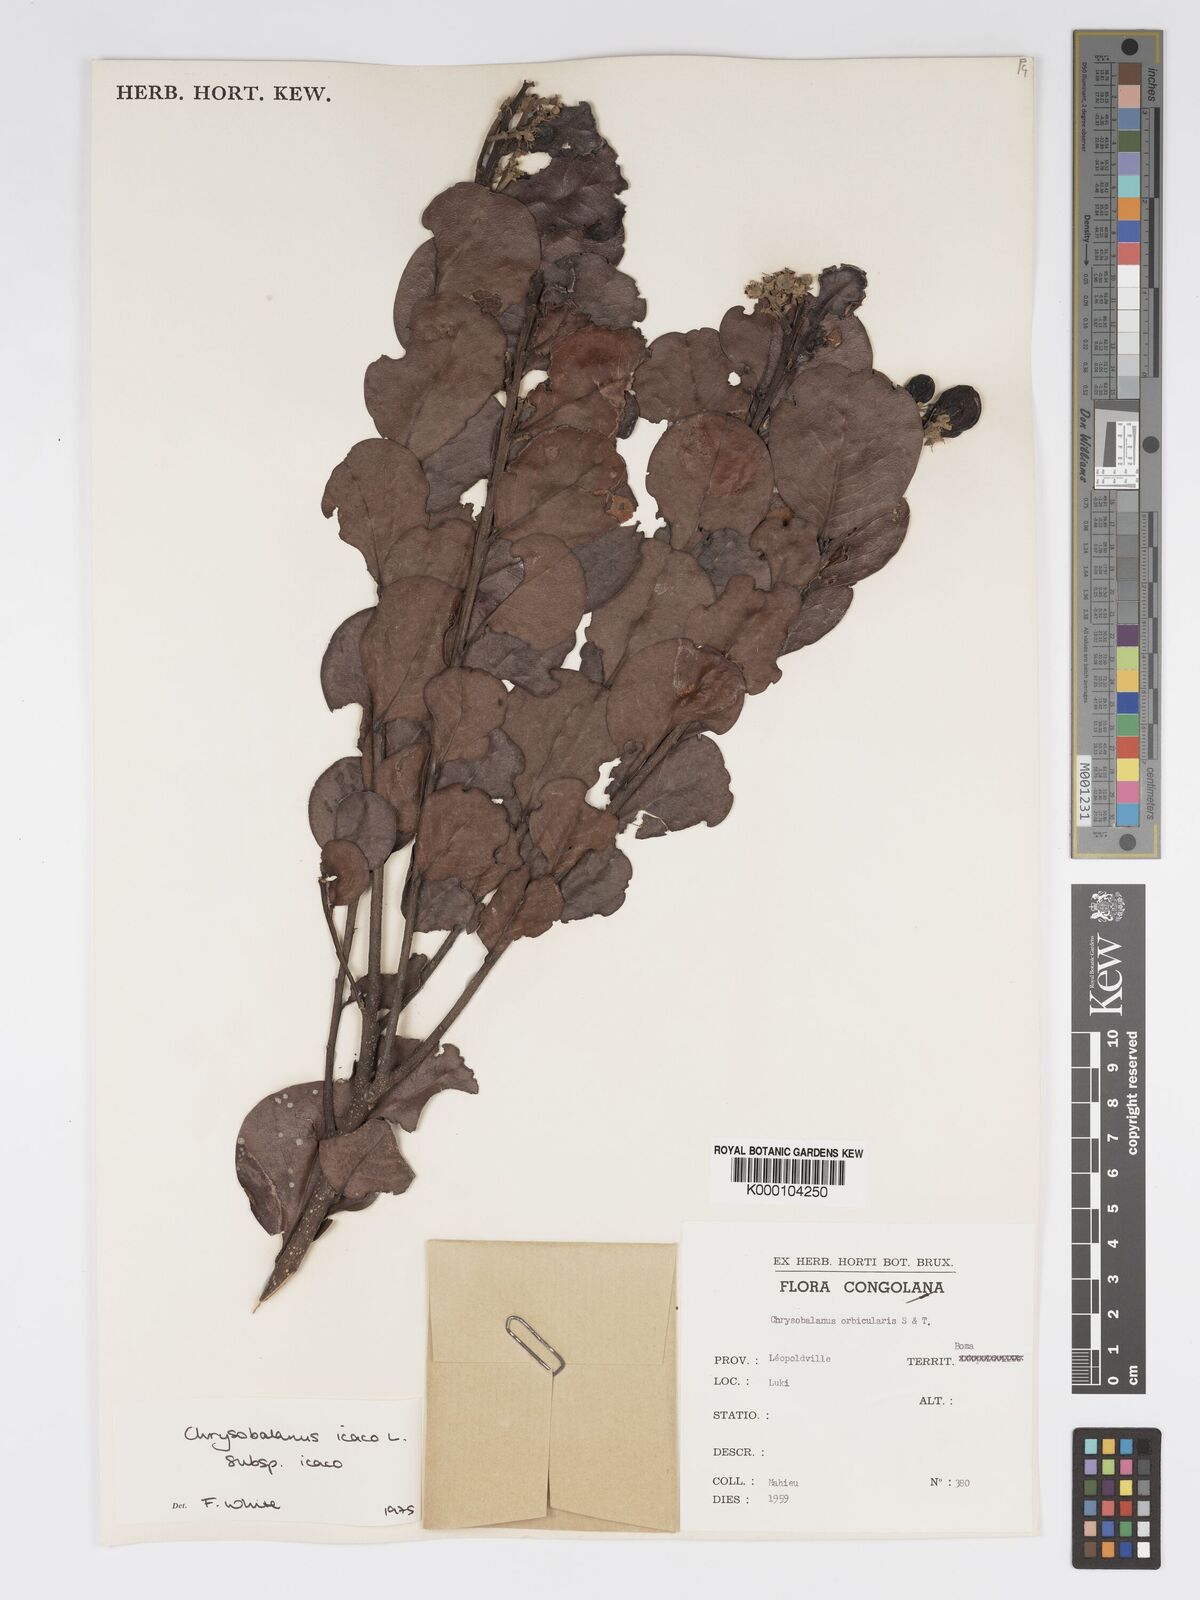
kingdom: Plantae
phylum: Tracheophyta
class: Magnoliopsida
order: Malpighiales
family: Chrysobalanaceae
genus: Chrysobalanus
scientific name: Chrysobalanus icaco
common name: Coco plum
